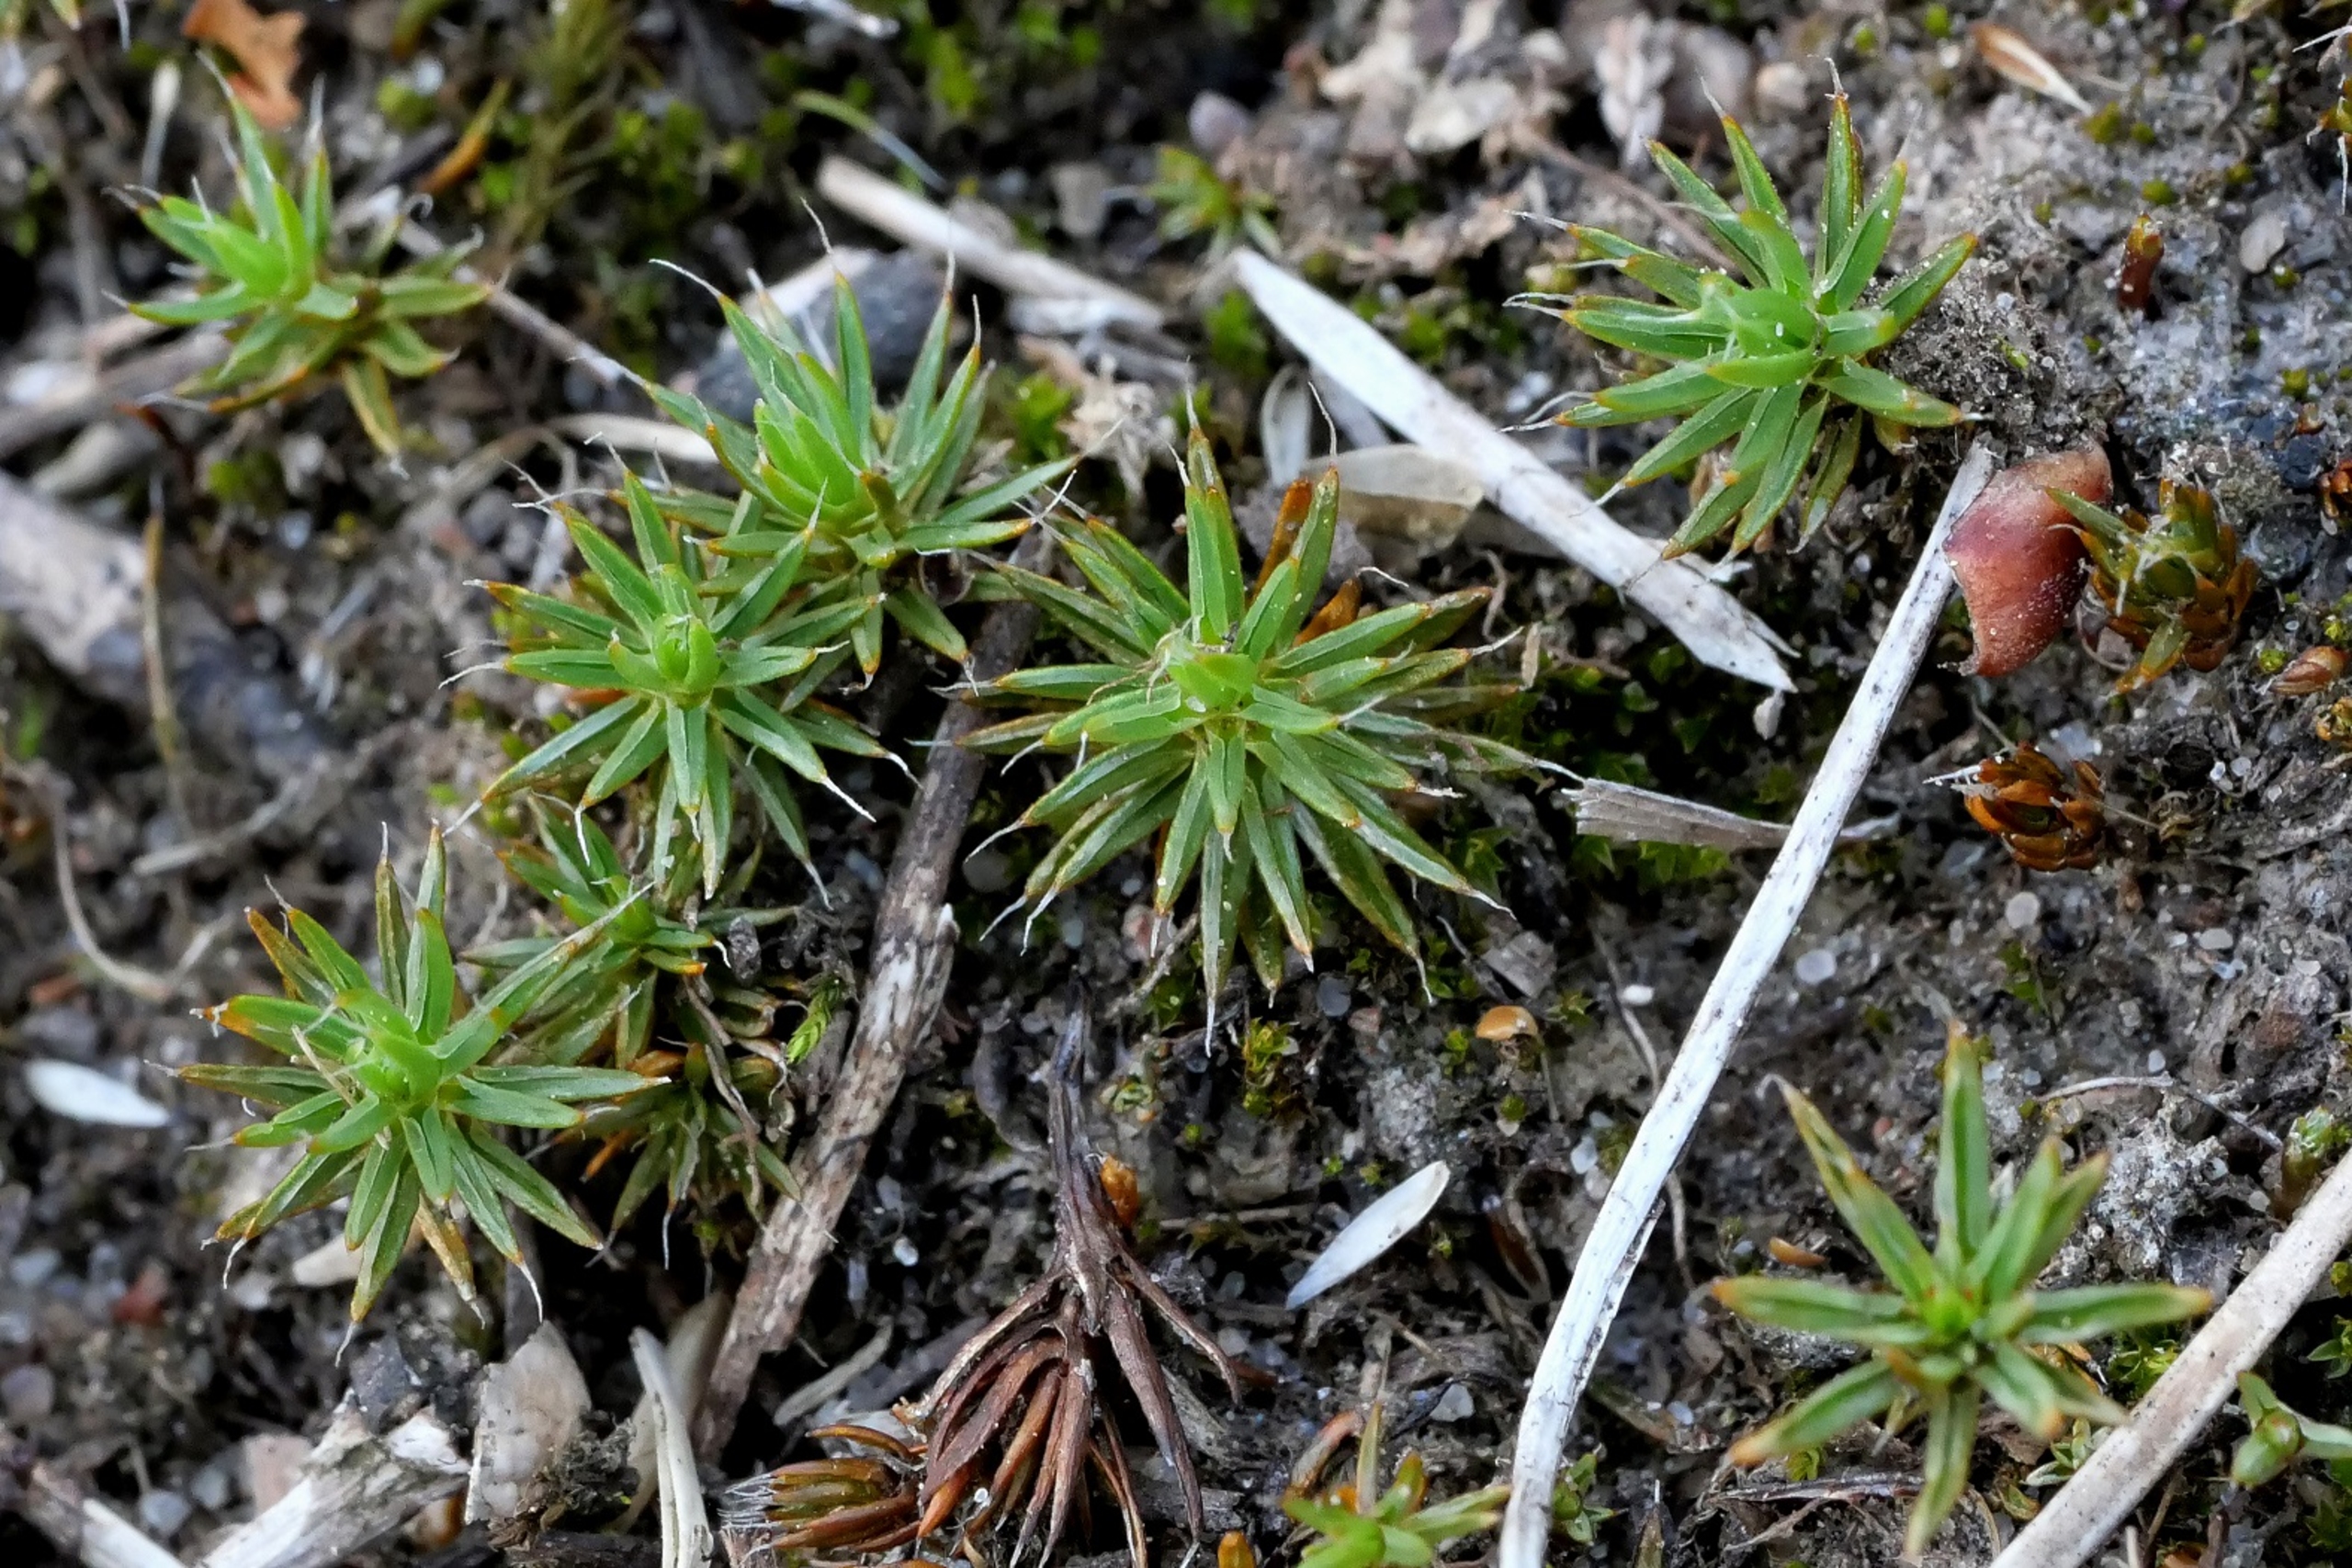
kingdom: Plantae
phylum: Bryophyta
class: Polytrichopsida
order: Polytrichales
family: Polytrichaceae
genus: Polytrichum
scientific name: Polytrichum piliferum
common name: Hårspidset jomfruhår
